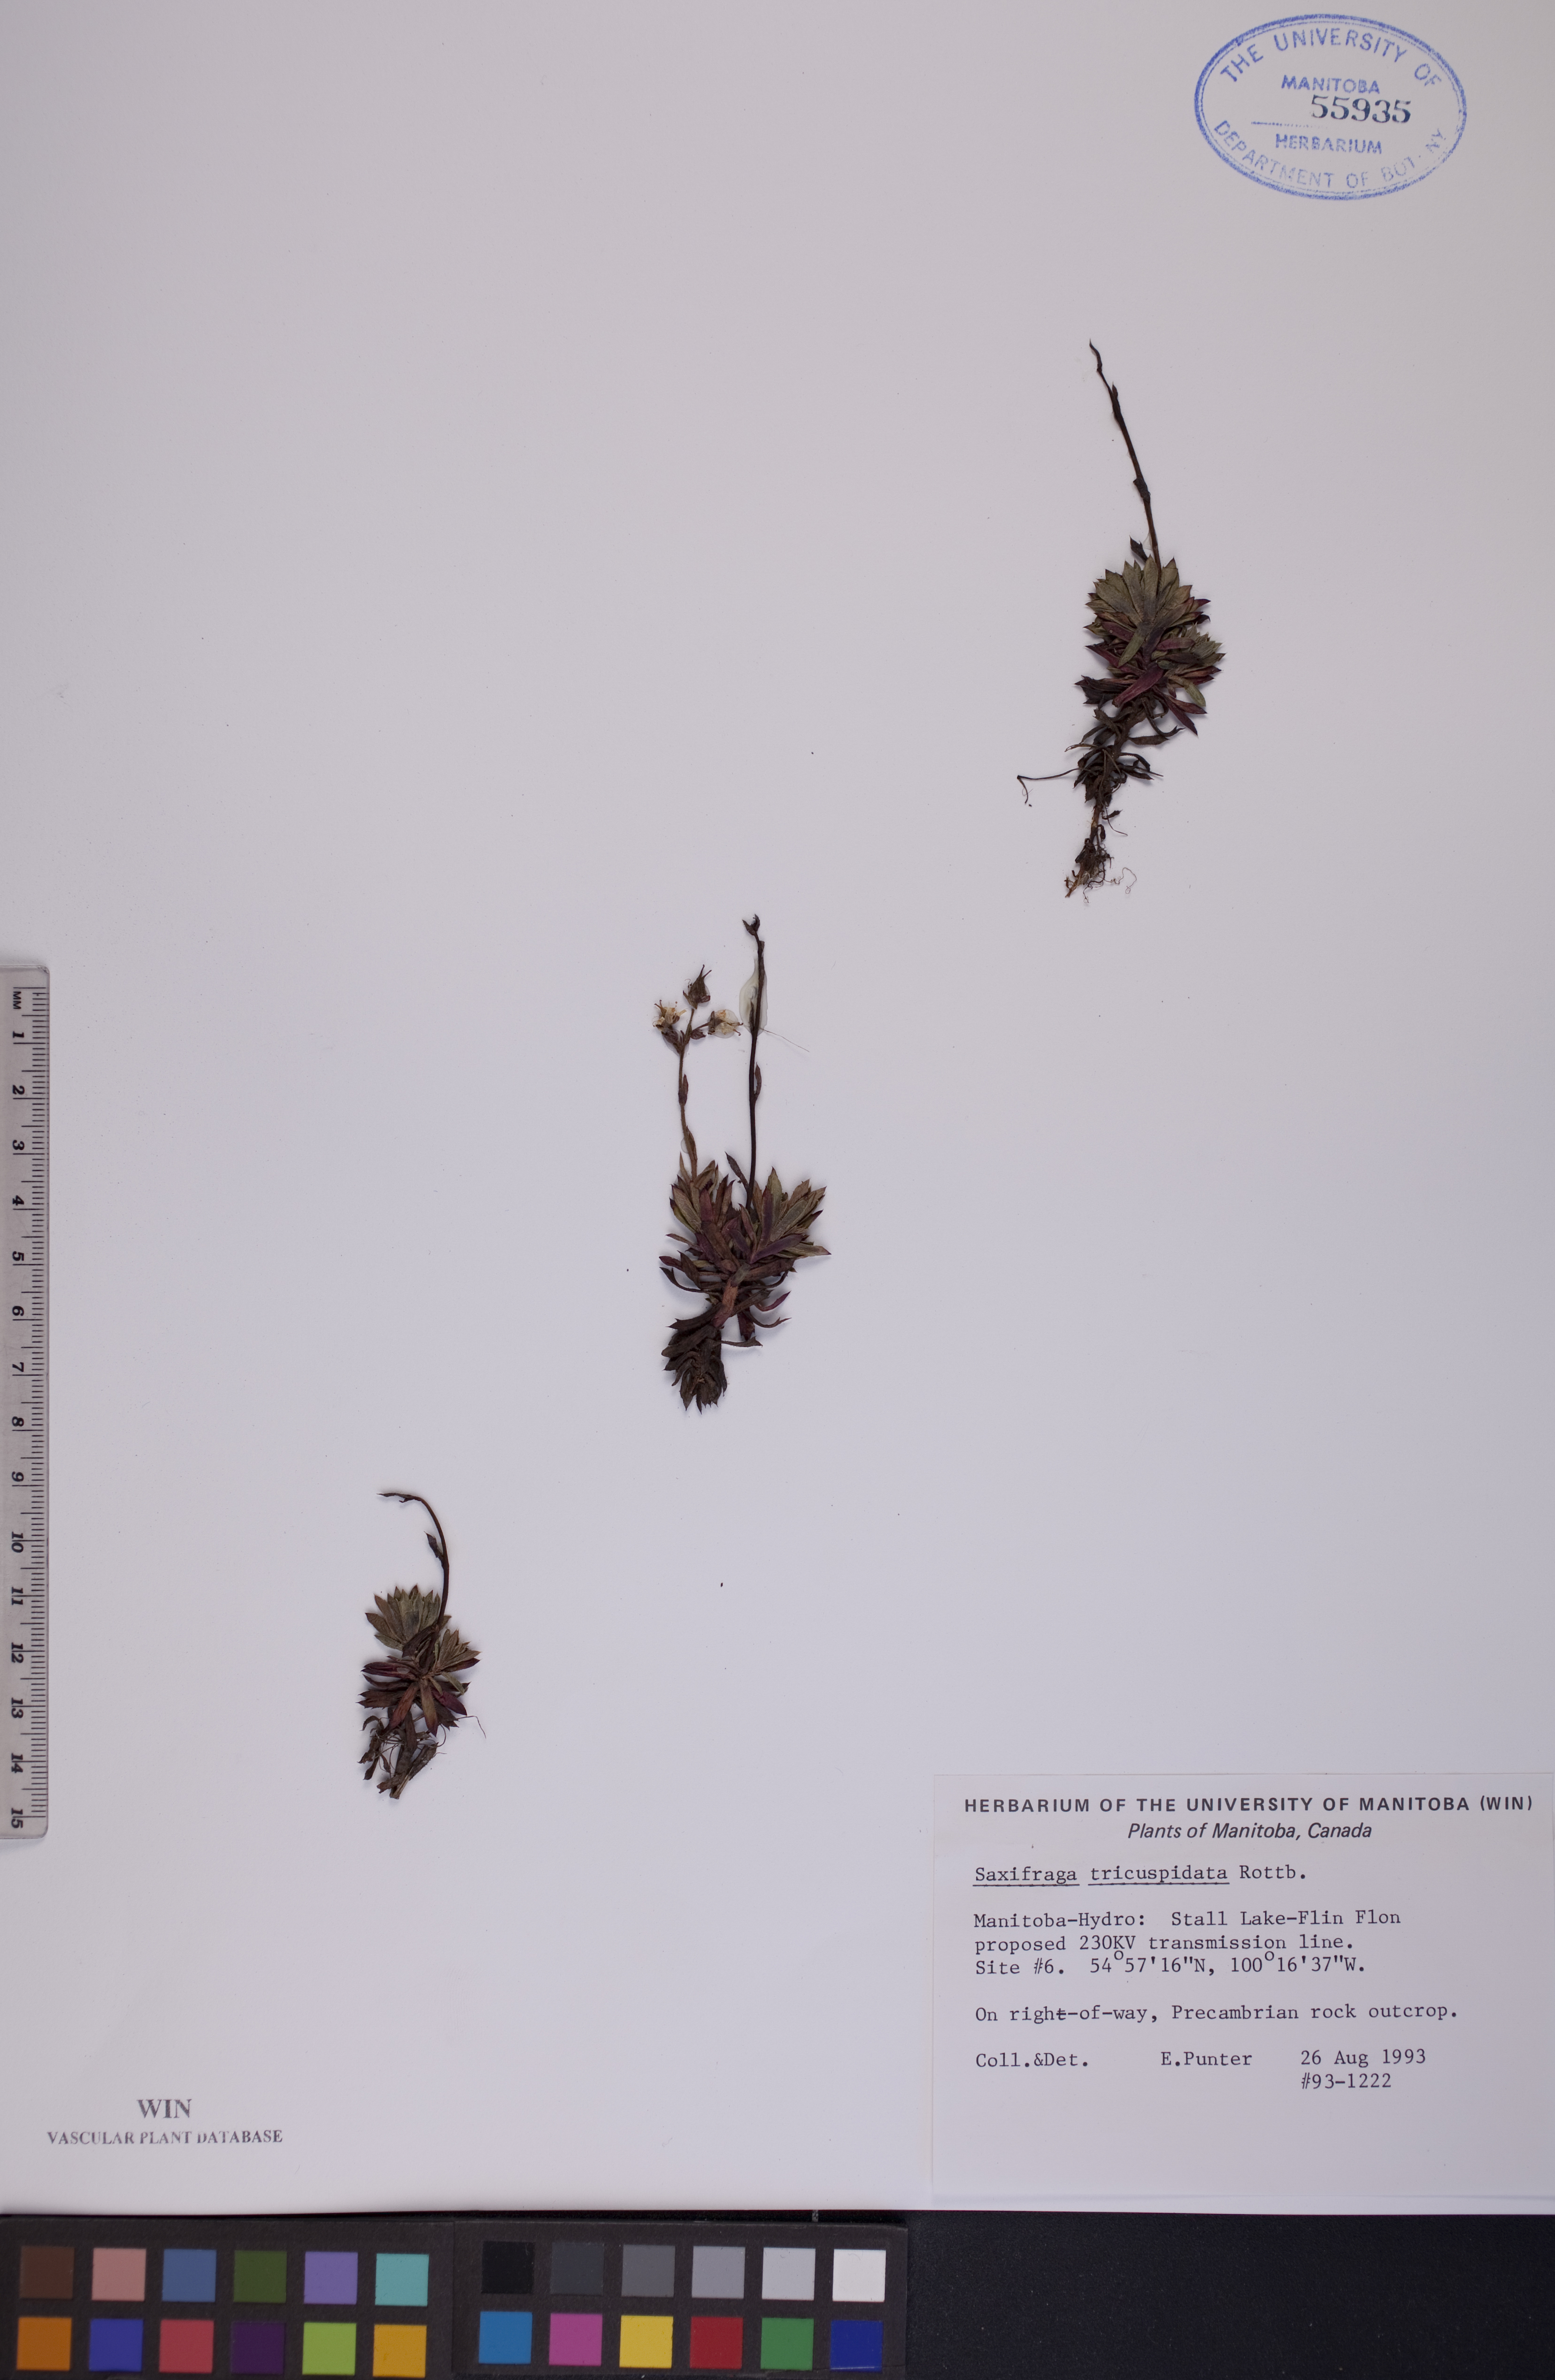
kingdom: Plantae
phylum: Tracheophyta
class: Magnoliopsida
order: Saxifragales
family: Saxifragaceae
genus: Saxifraga
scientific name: Saxifraga tricuspidata
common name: Prickly saxifrage
